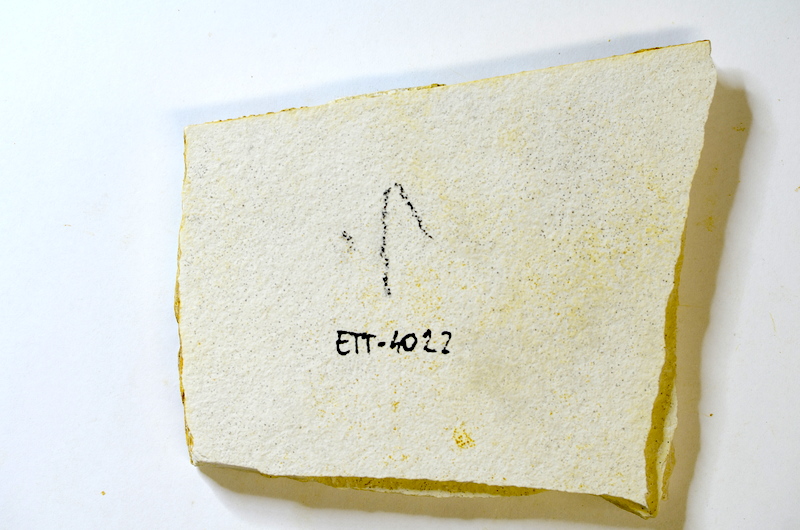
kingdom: Animalia
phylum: Chordata
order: Salmoniformes
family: Orthogonikleithridae
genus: Orthogonikleithrus
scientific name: Orthogonikleithrus hoelli
